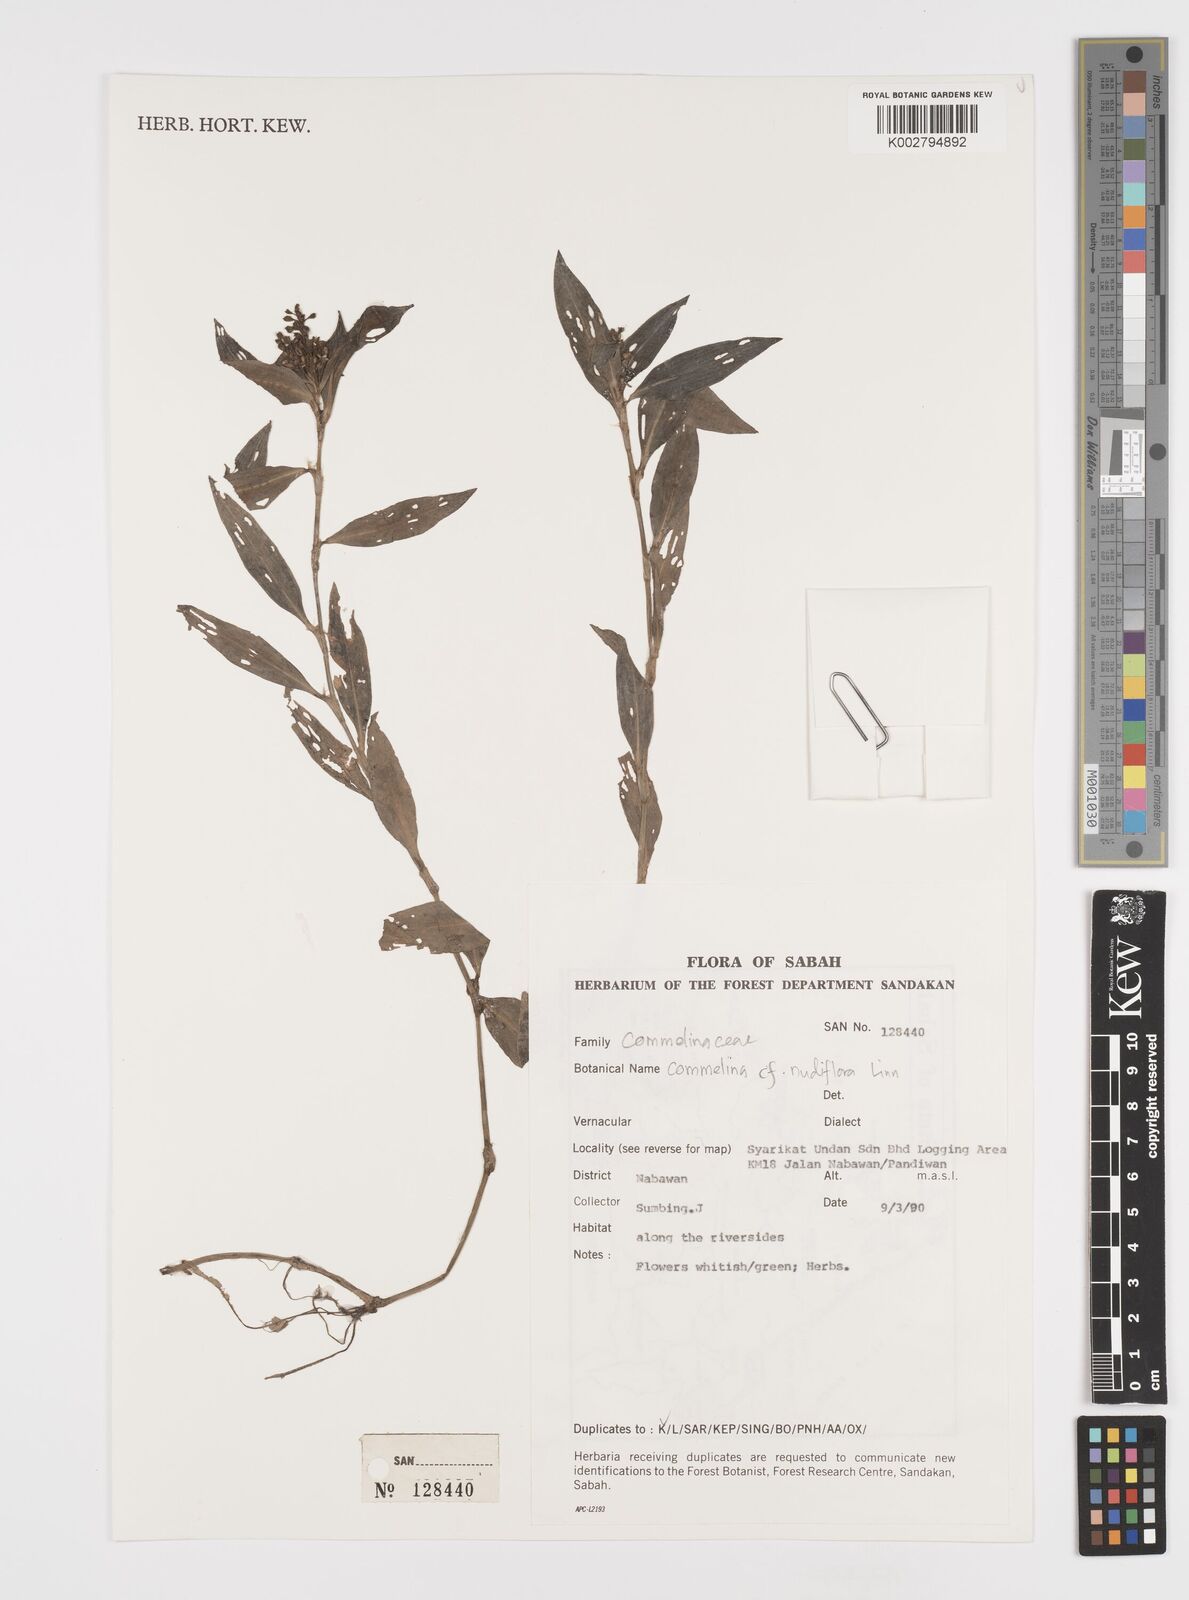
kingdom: Plantae
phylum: Tracheophyta
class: Liliopsida
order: Commelinales
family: Commelinaceae
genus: Floscopa
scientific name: Floscopa scandens
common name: Climbing flower cup
